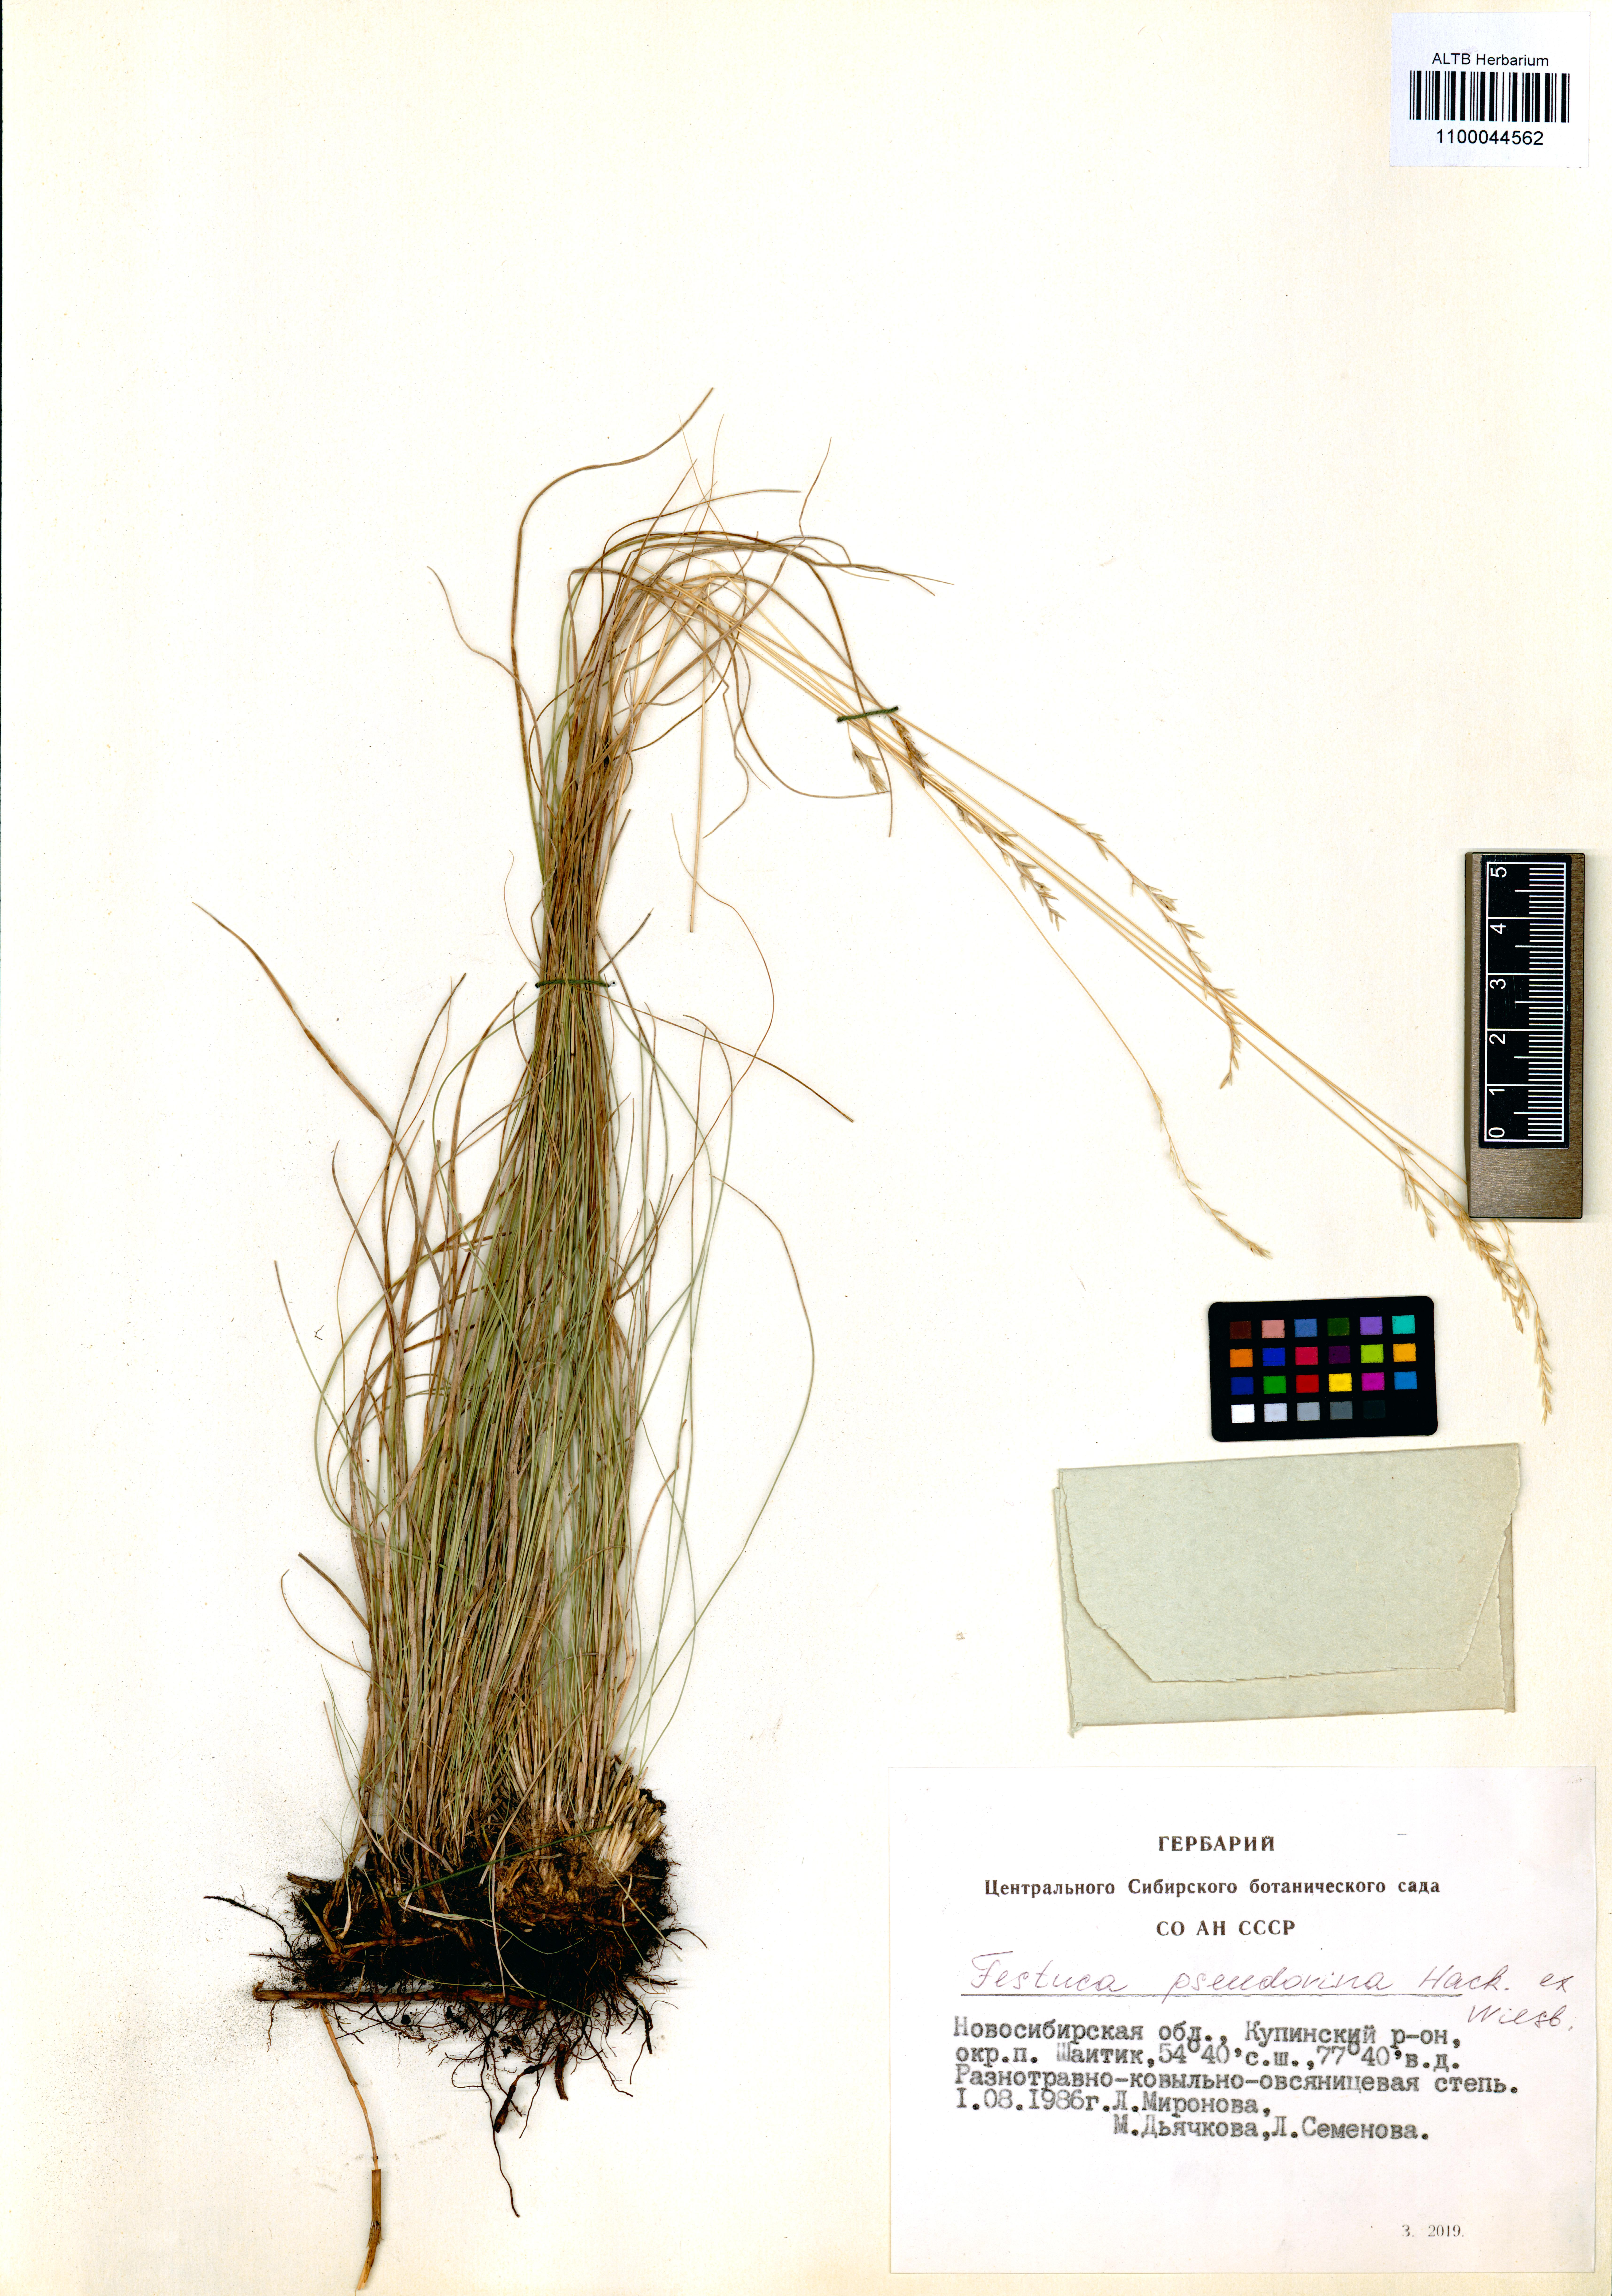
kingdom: Plantae
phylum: Tracheophyta
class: Liliopsida
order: Poales
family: Poaceae
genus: Festuca
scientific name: Festuca pulchra
